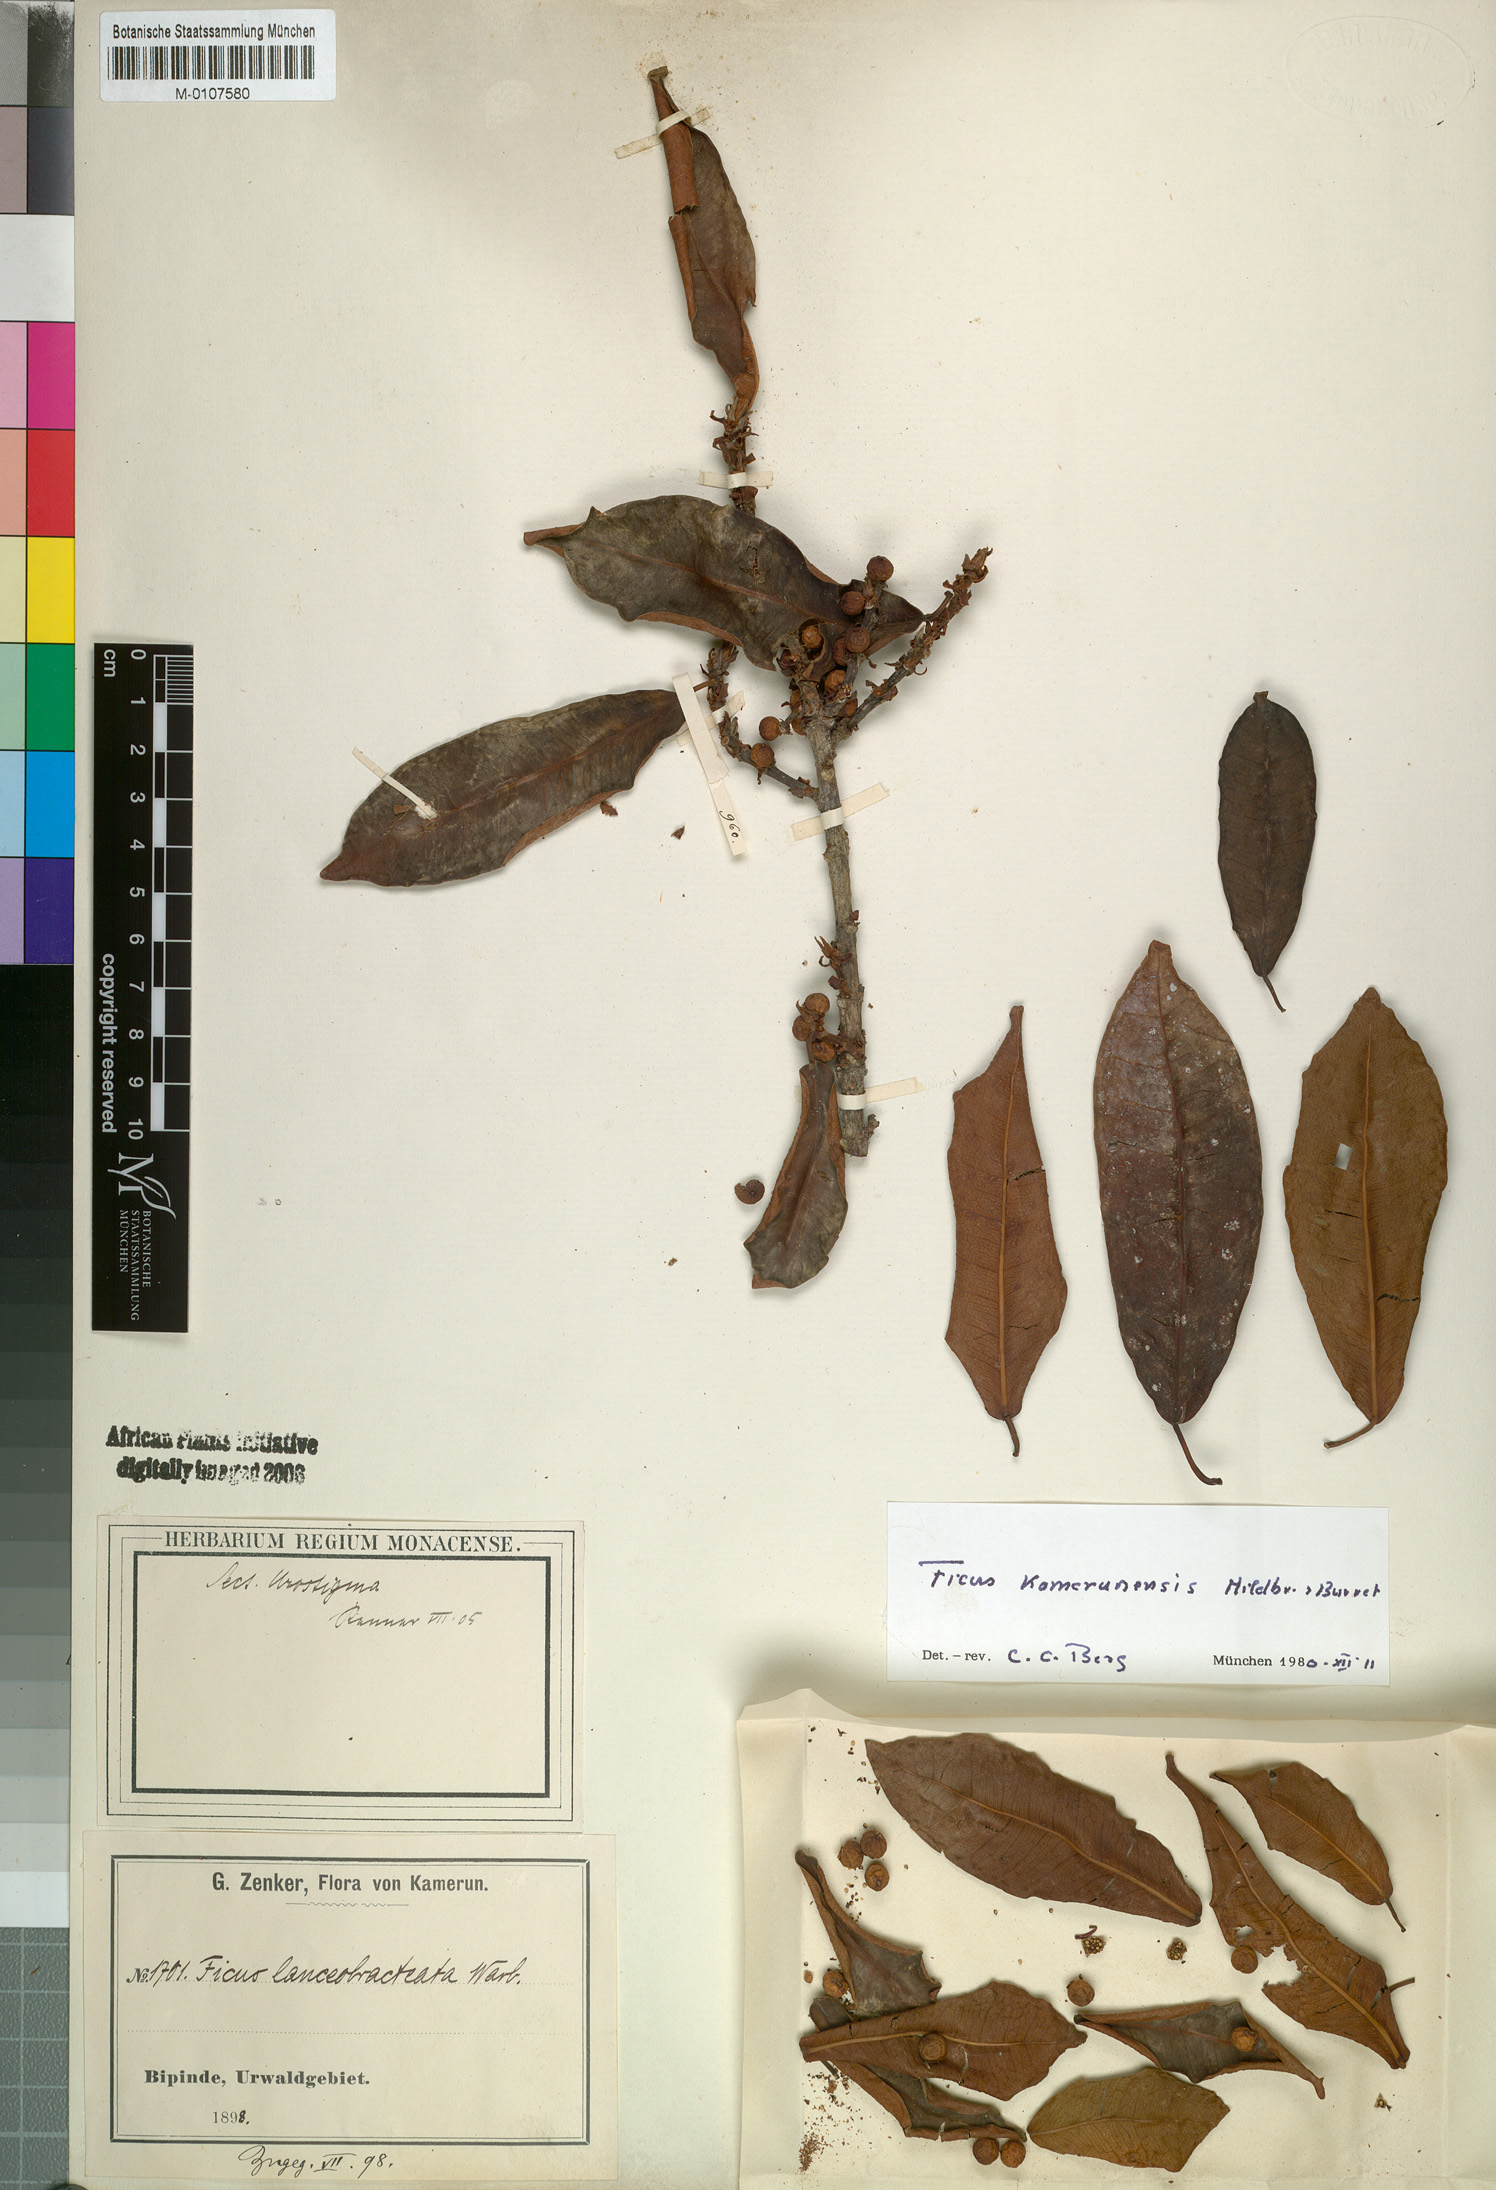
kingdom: Plantae
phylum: Tracheophyta
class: Magnoliopsida
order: Rosales
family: Moraceae
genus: Ficus
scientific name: Ficus kamerunensis
